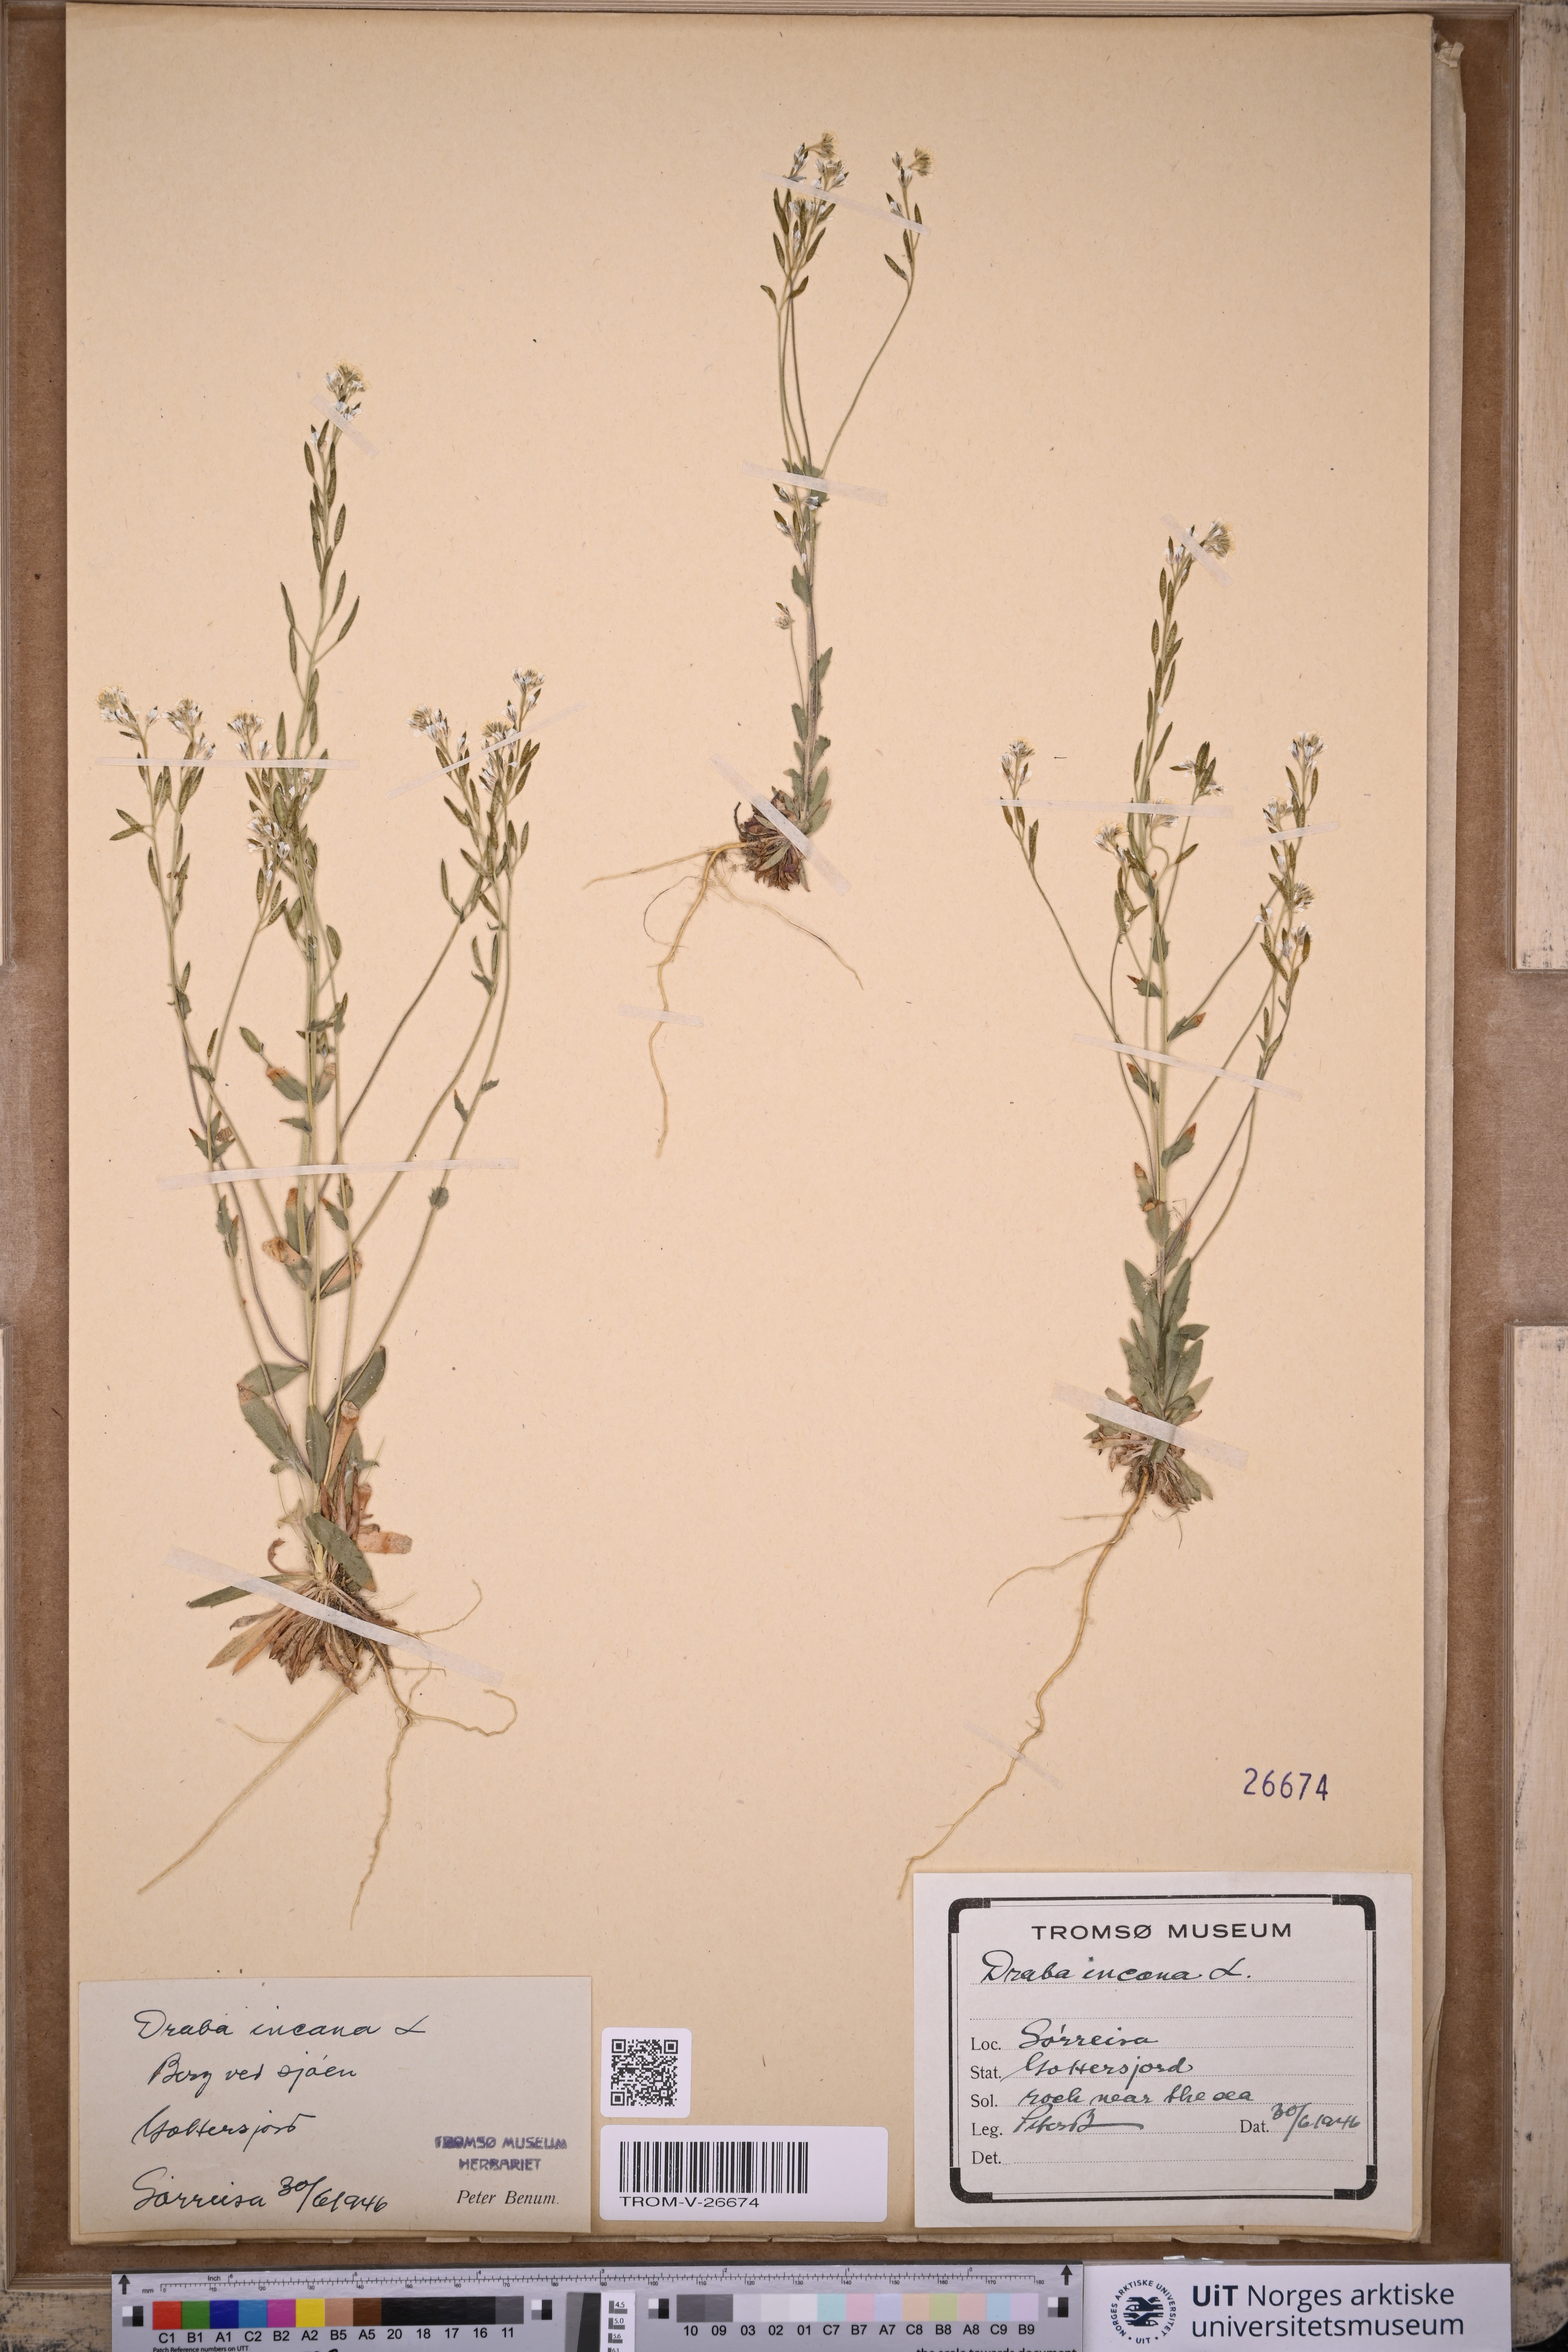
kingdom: Plantae
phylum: Tracheophyta
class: Magnoliopsida
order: Brassicales
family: Brassicaceae
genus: Draba
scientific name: Draba incana
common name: Hoary whitlow-grass
